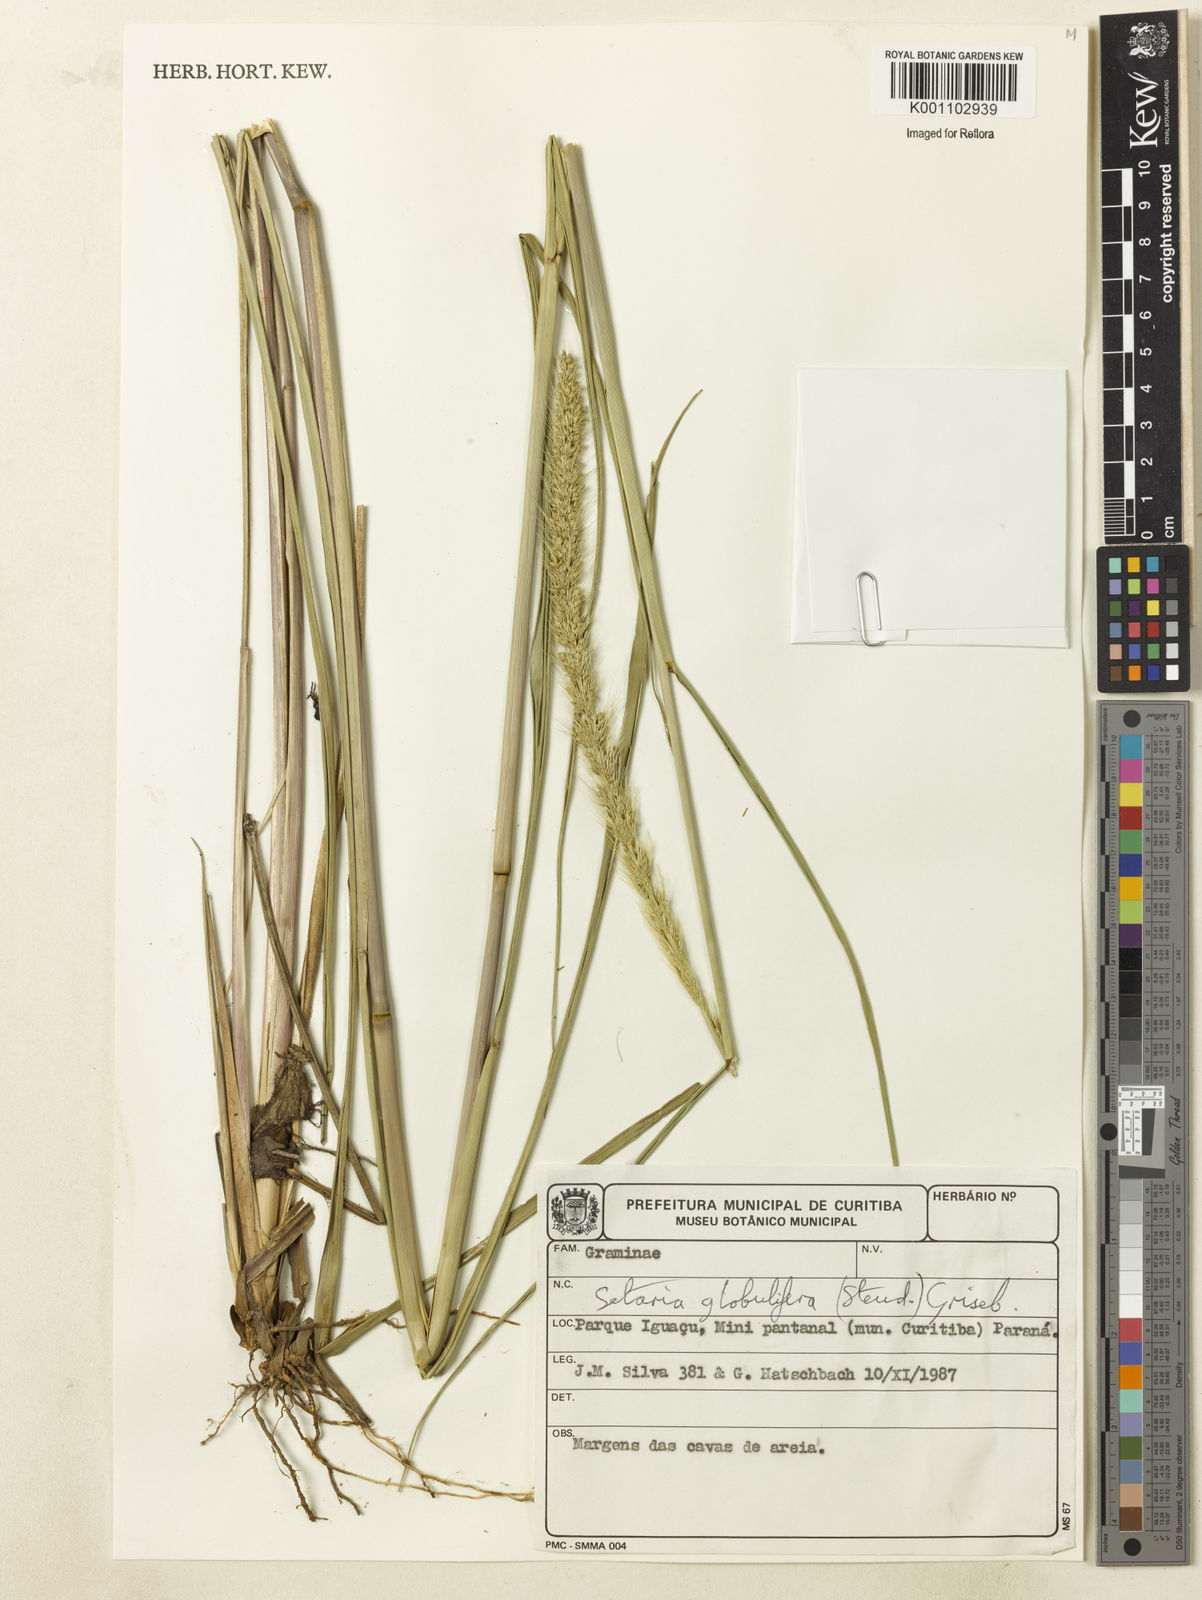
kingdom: Plantae
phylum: Tracheophyta
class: Liliopsida
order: Poales
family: Poaceae
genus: Setaria
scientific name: Setaria globulifera
